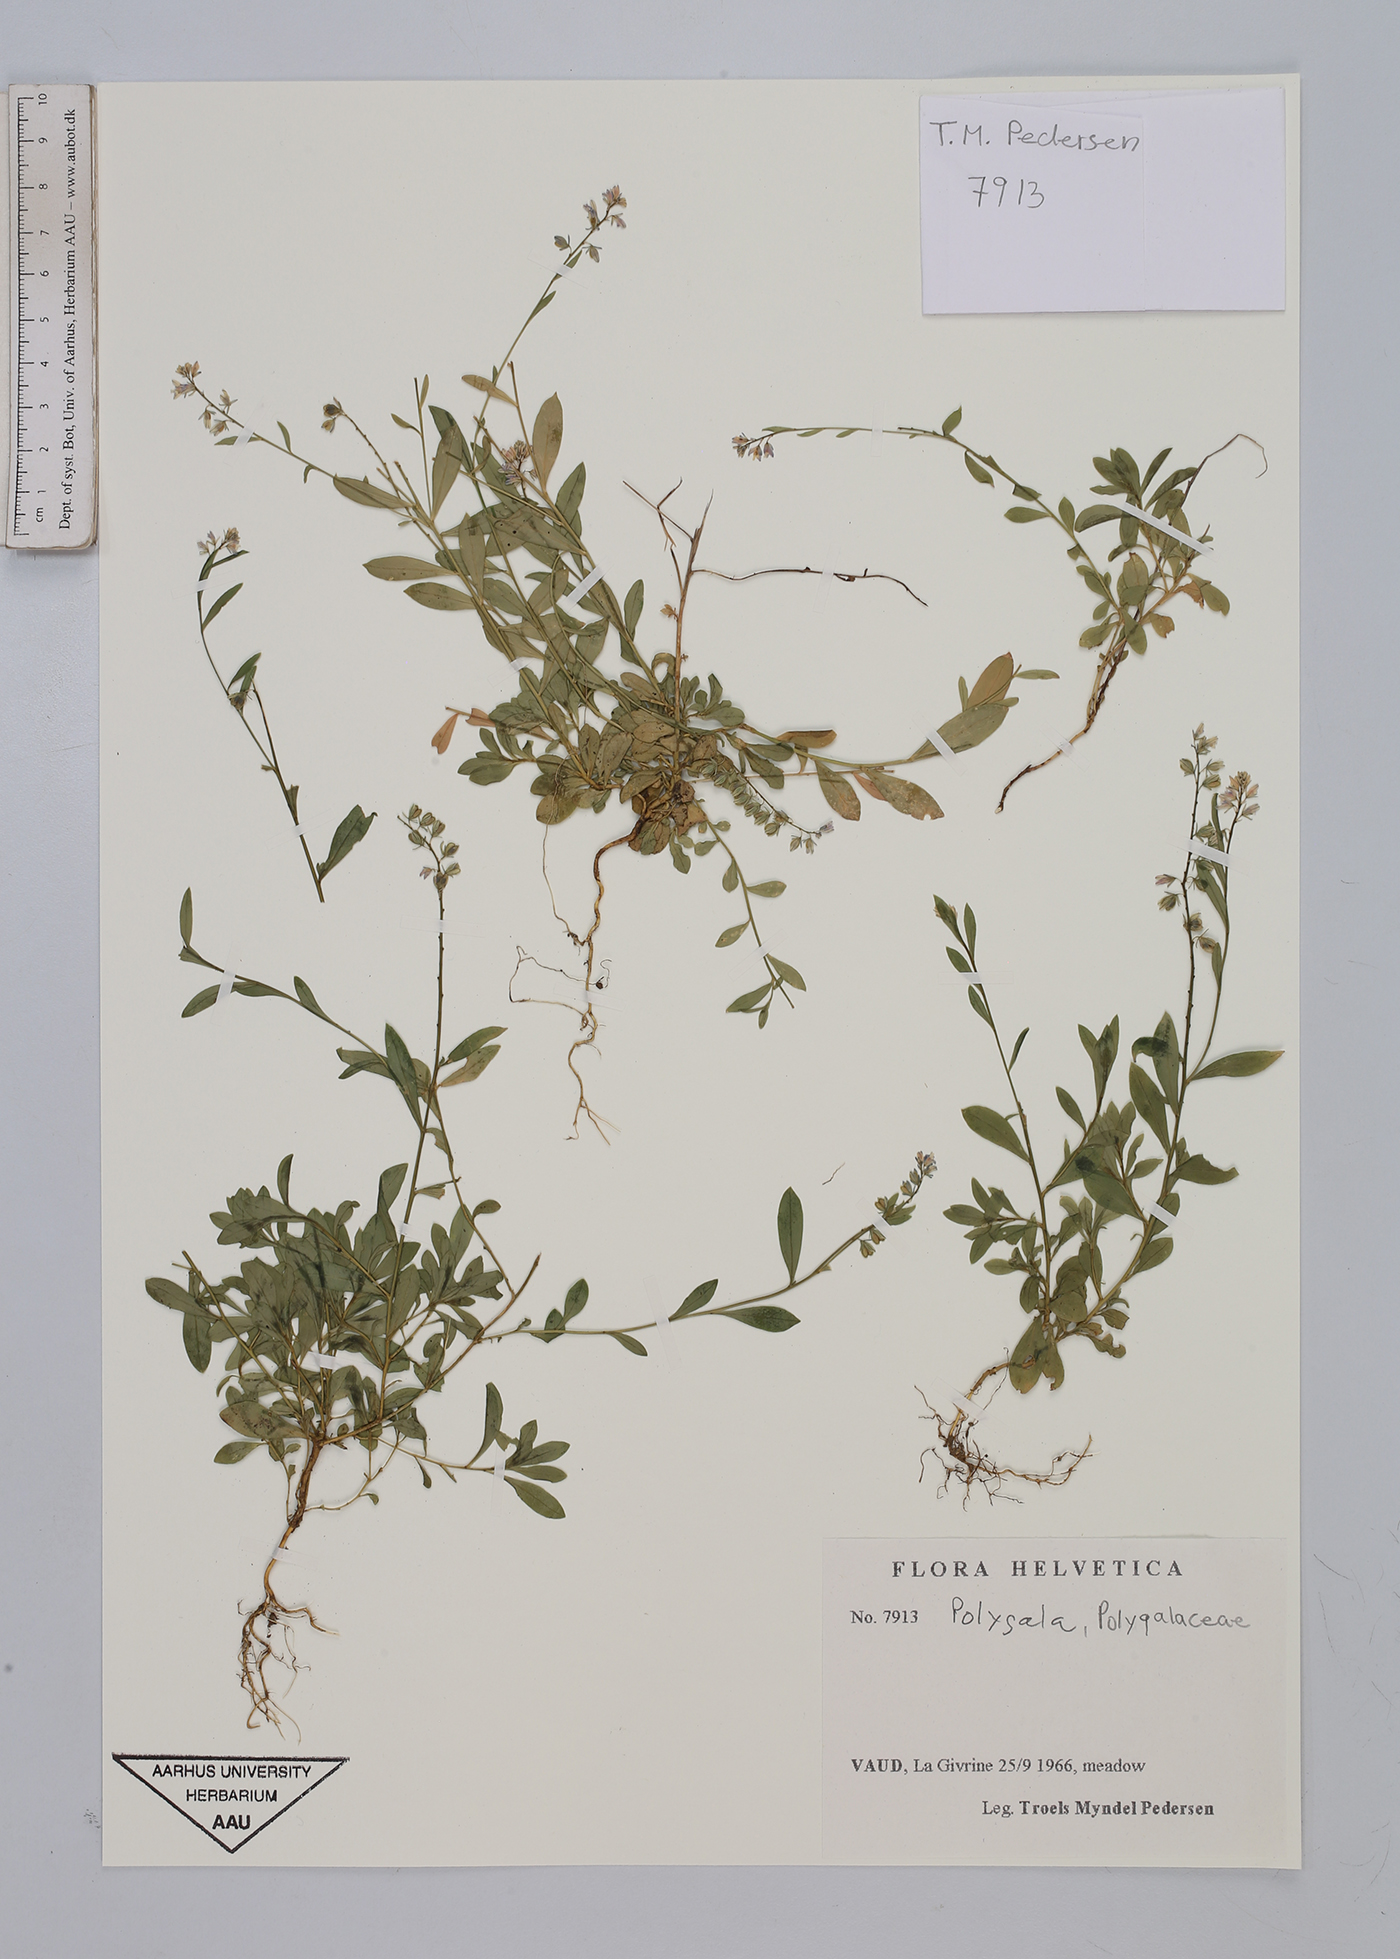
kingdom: Plantae
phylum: Tracheophyta
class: Magnoliopsida
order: Fabales
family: Polygalaceae
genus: Polygala
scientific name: Polygala
